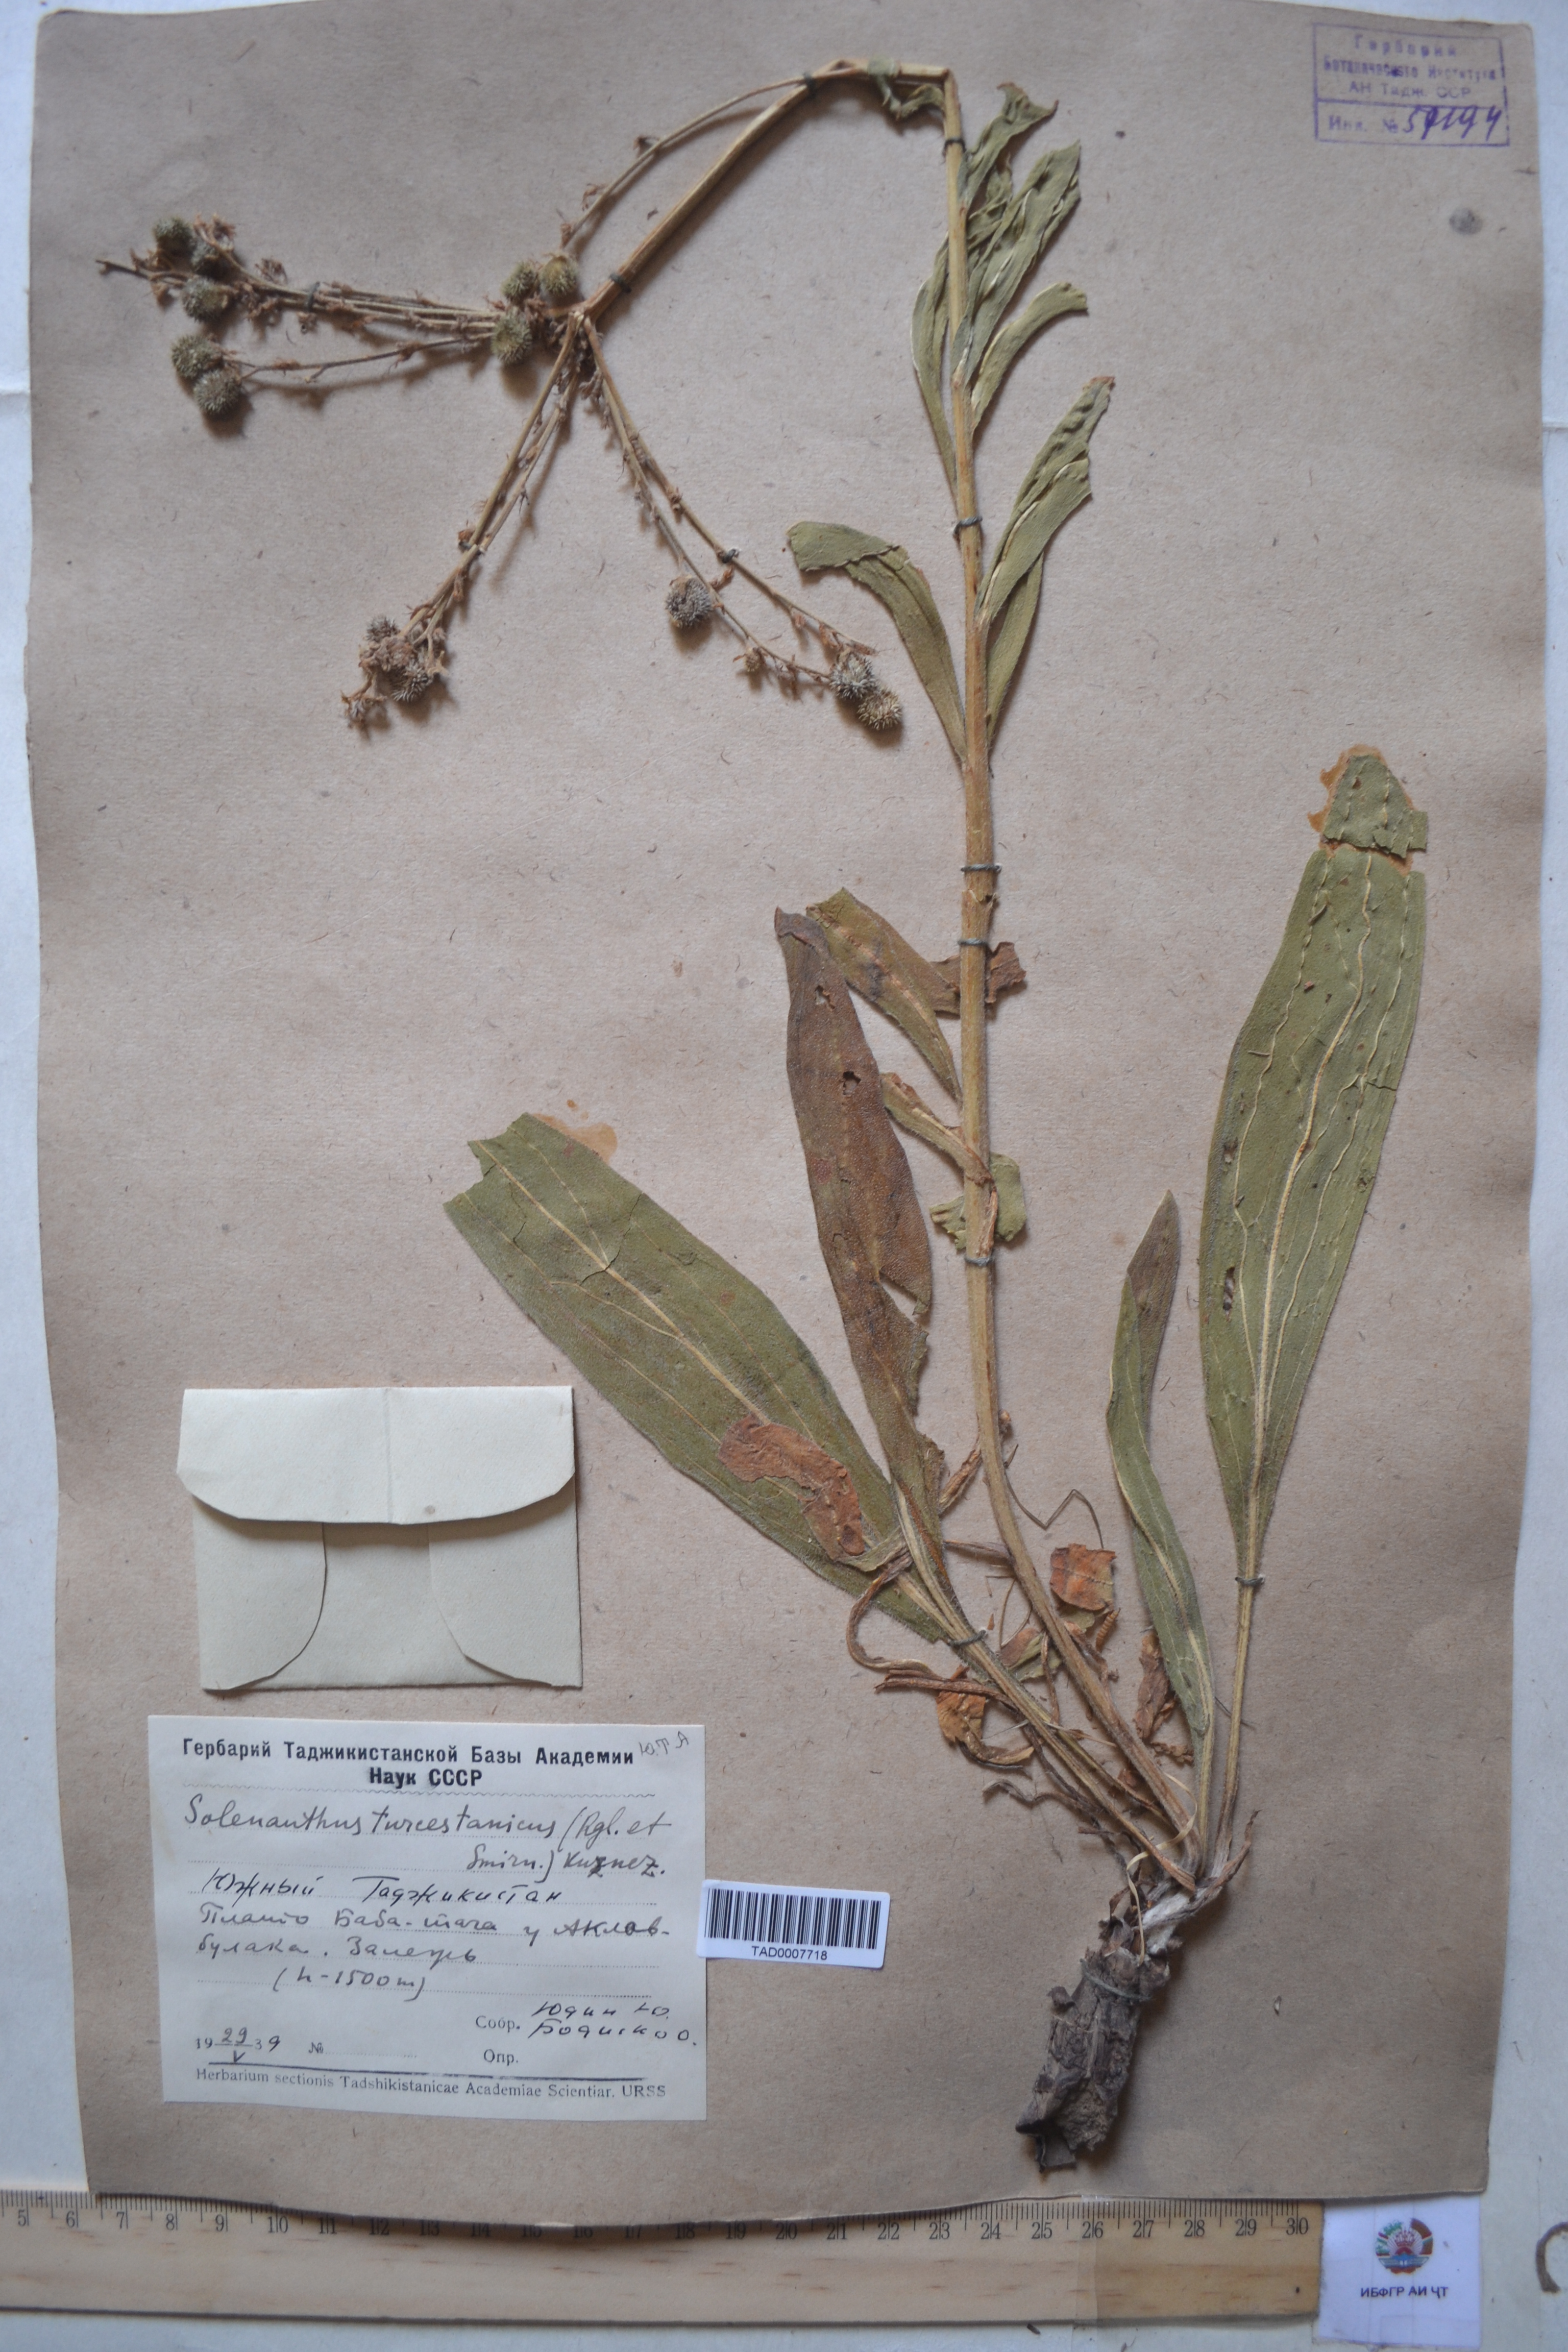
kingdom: Plantae
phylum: Tracheophyta
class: Magnoliopsida
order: Boraginales
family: Boraginaceae
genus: Solenanthus
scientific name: Solenanthus turkestanicus
